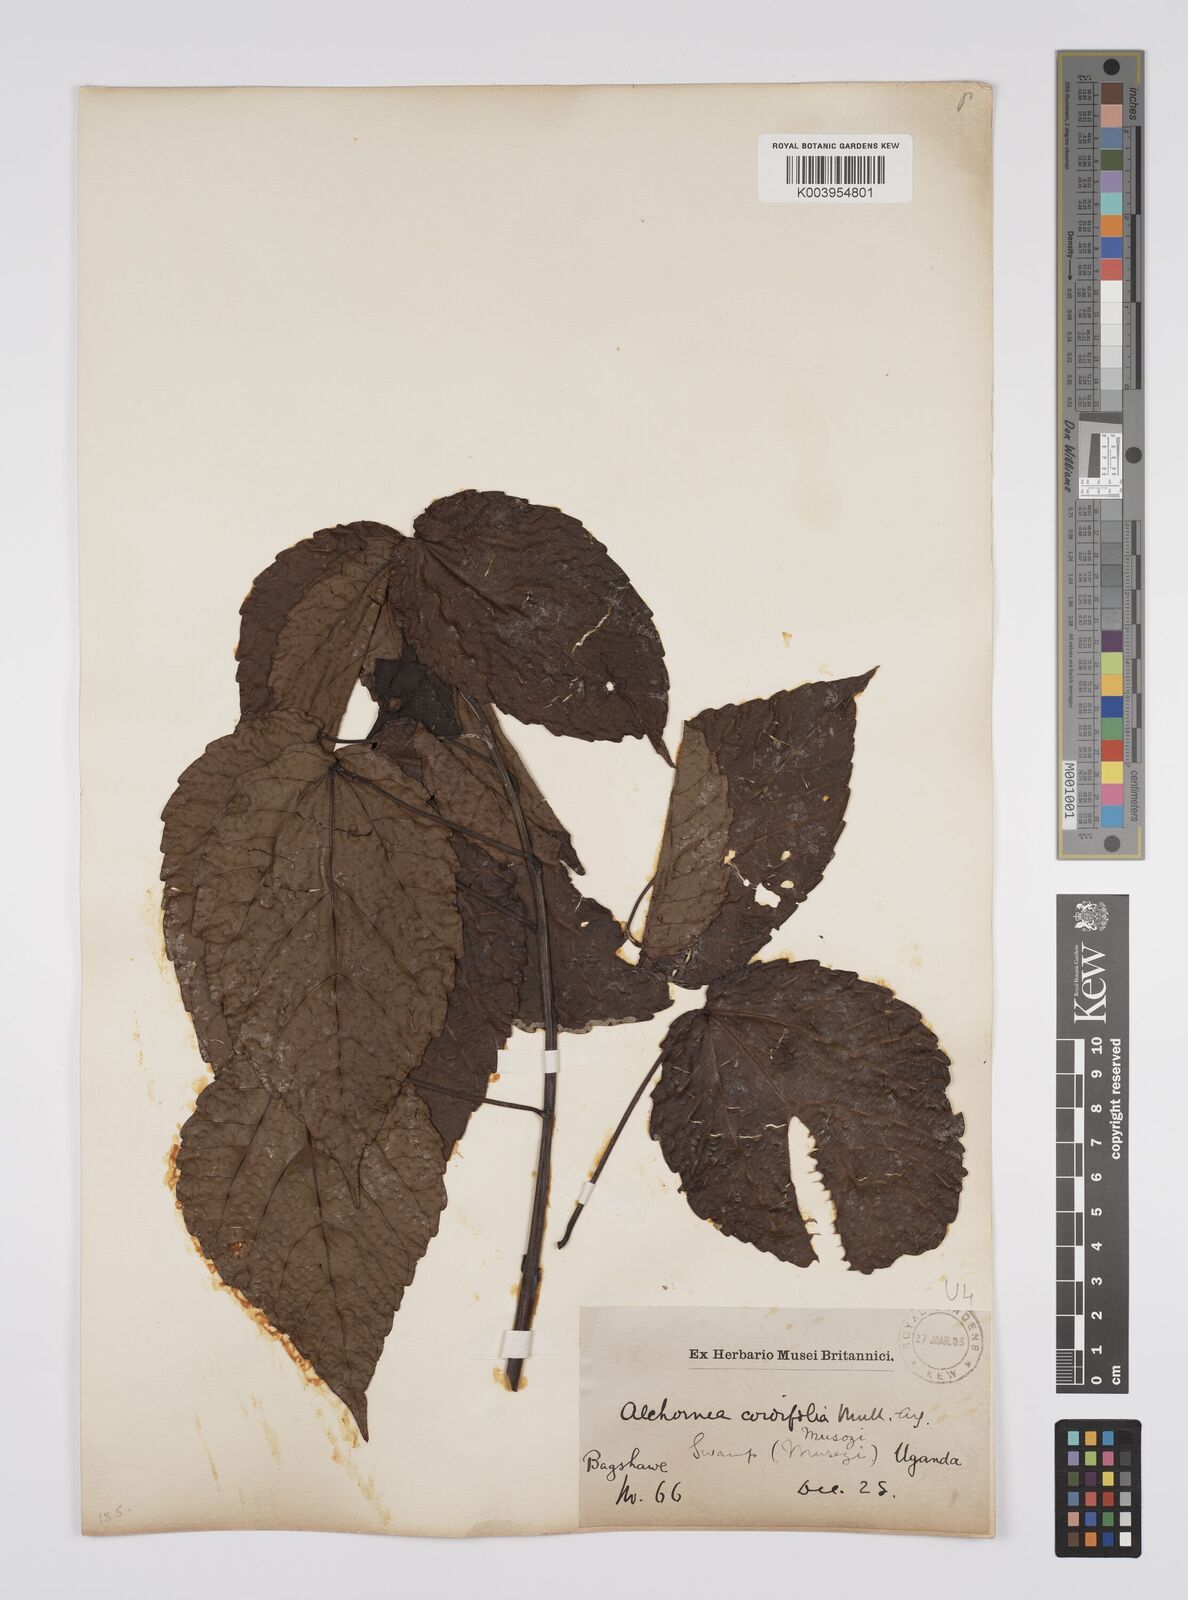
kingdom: Plantae
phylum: Tracheophyta
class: Magnoliopsida
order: Malpighiales
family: Euphorbiaceae
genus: Alchornea
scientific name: Alchornea cordifolia
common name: Christmasbush
